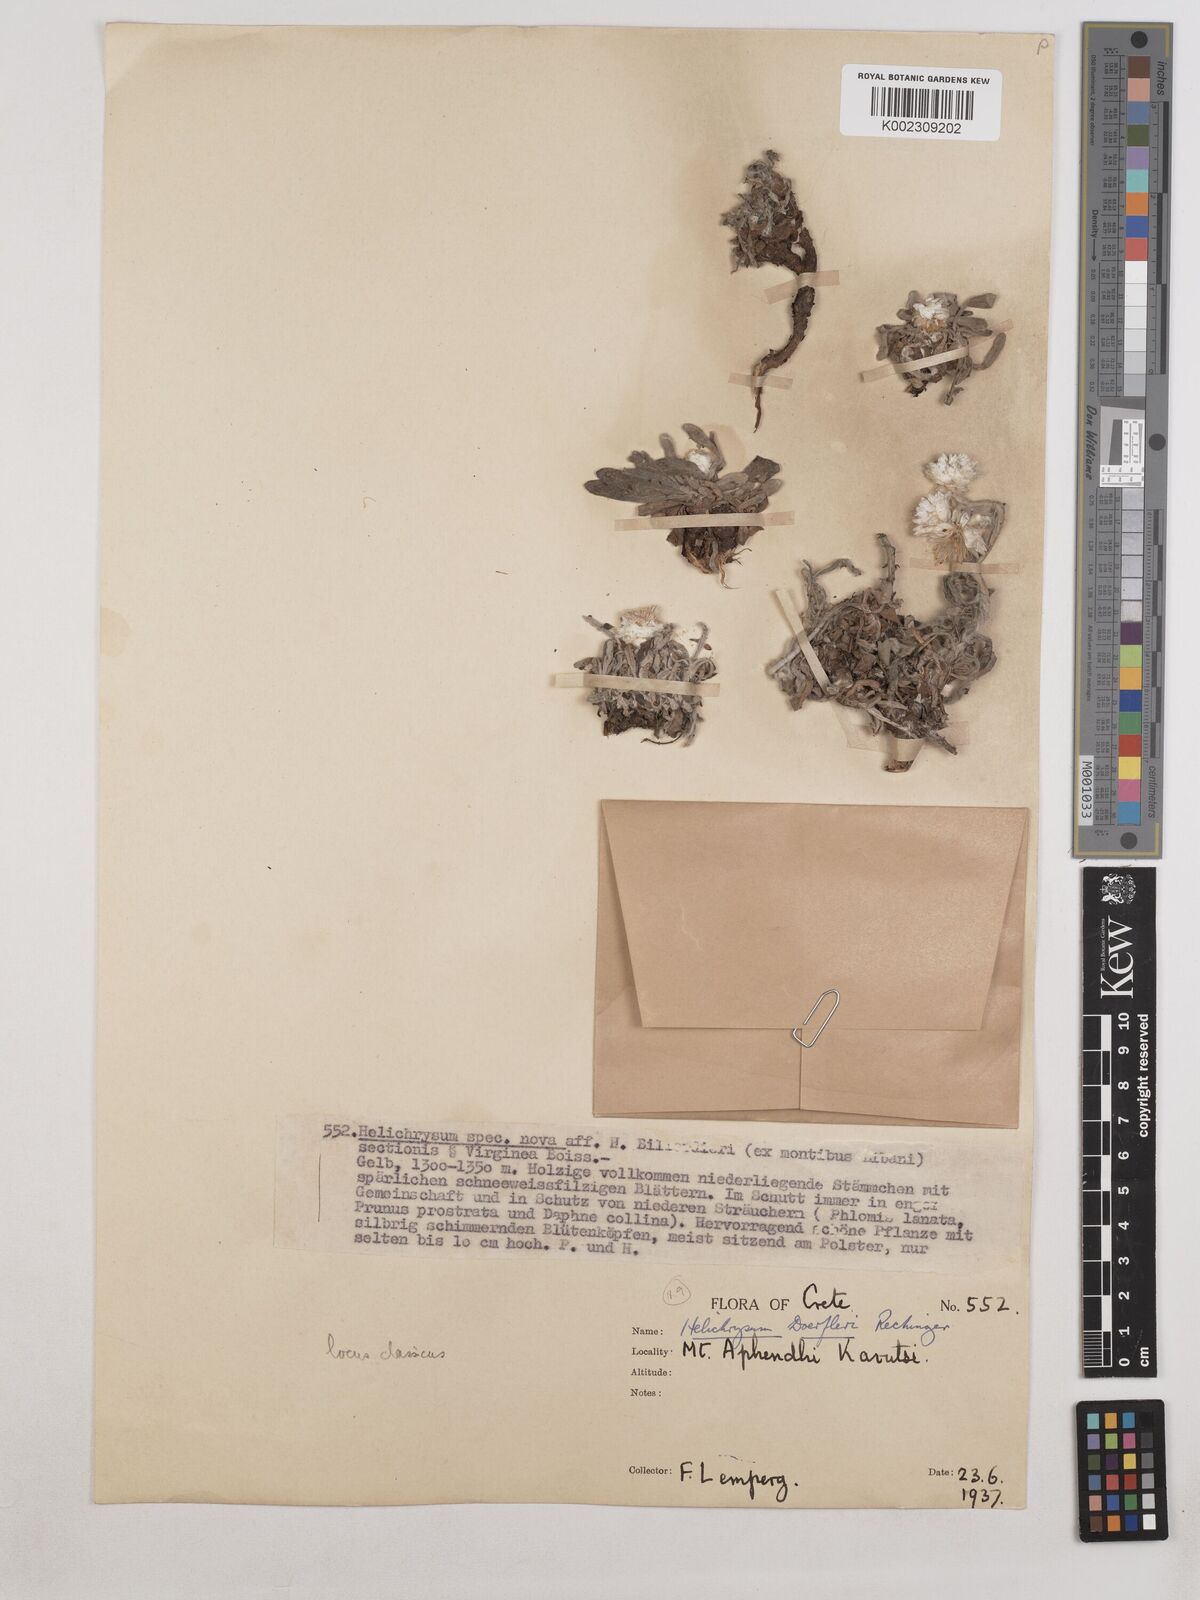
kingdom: Plantae
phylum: Tracheophyta
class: Magnoliopsida
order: Asterales
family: Asteraceae
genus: Helichrysum
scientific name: Helichrysum doerfleri
